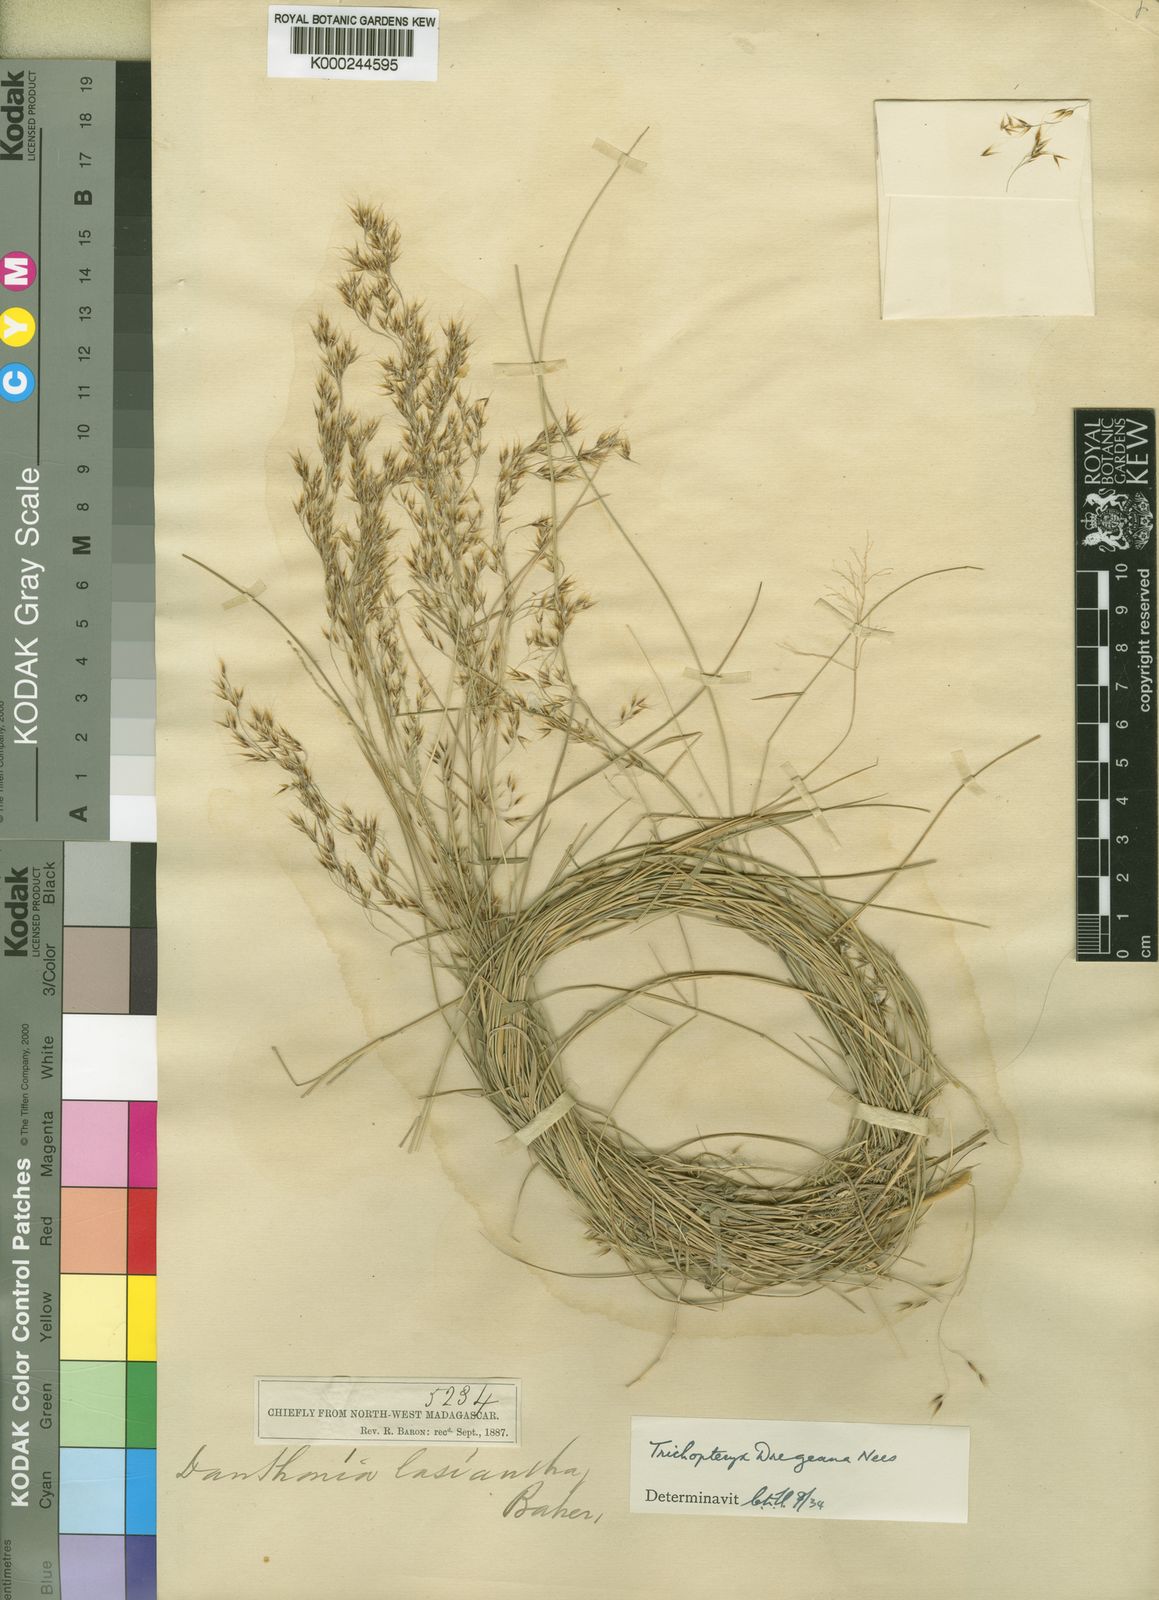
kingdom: Plantae
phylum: Tracheophyta
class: Liliopsida
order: Poales
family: Poaceae
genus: Trichopteryx
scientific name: Trichopteryx dregeana
